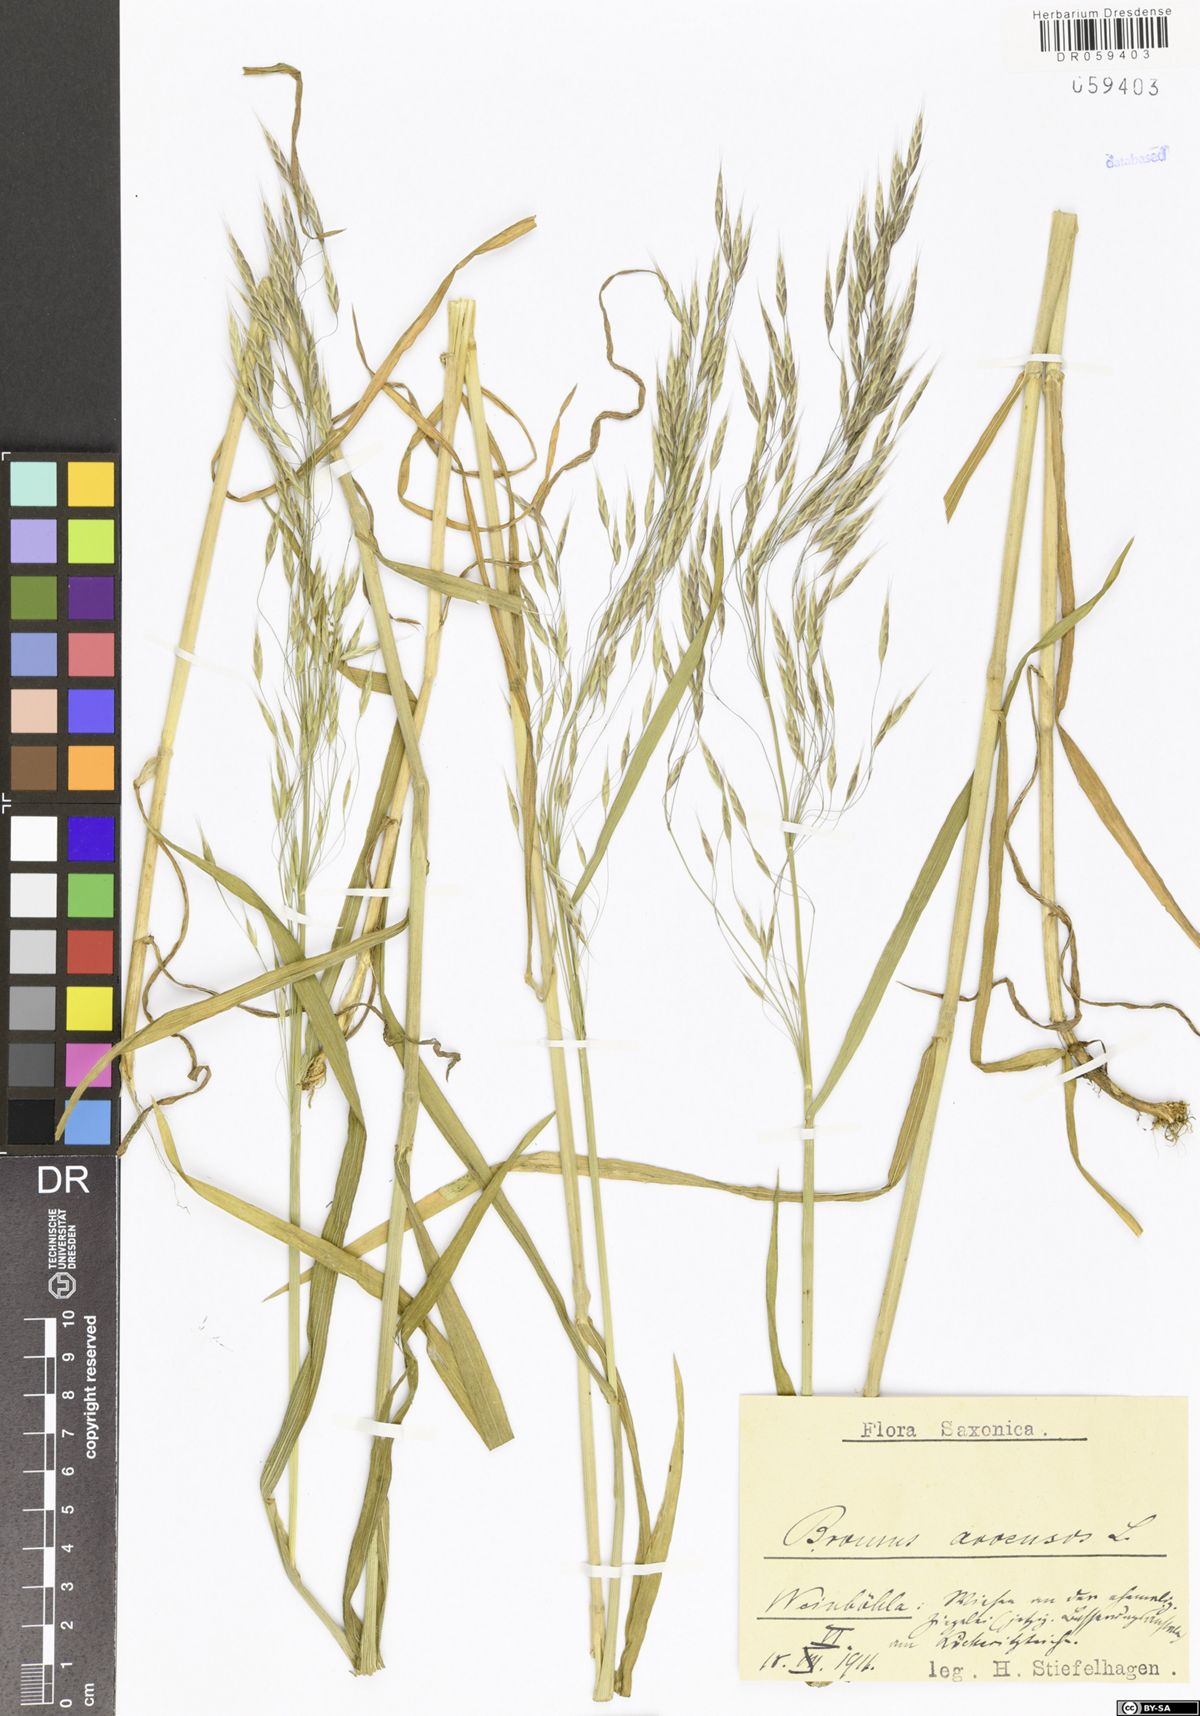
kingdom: Plantae
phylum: Tracheophyta
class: Liliopsida
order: Poales
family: Poaceae
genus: Bromus
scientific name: Bromus arvensis
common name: Field brome
